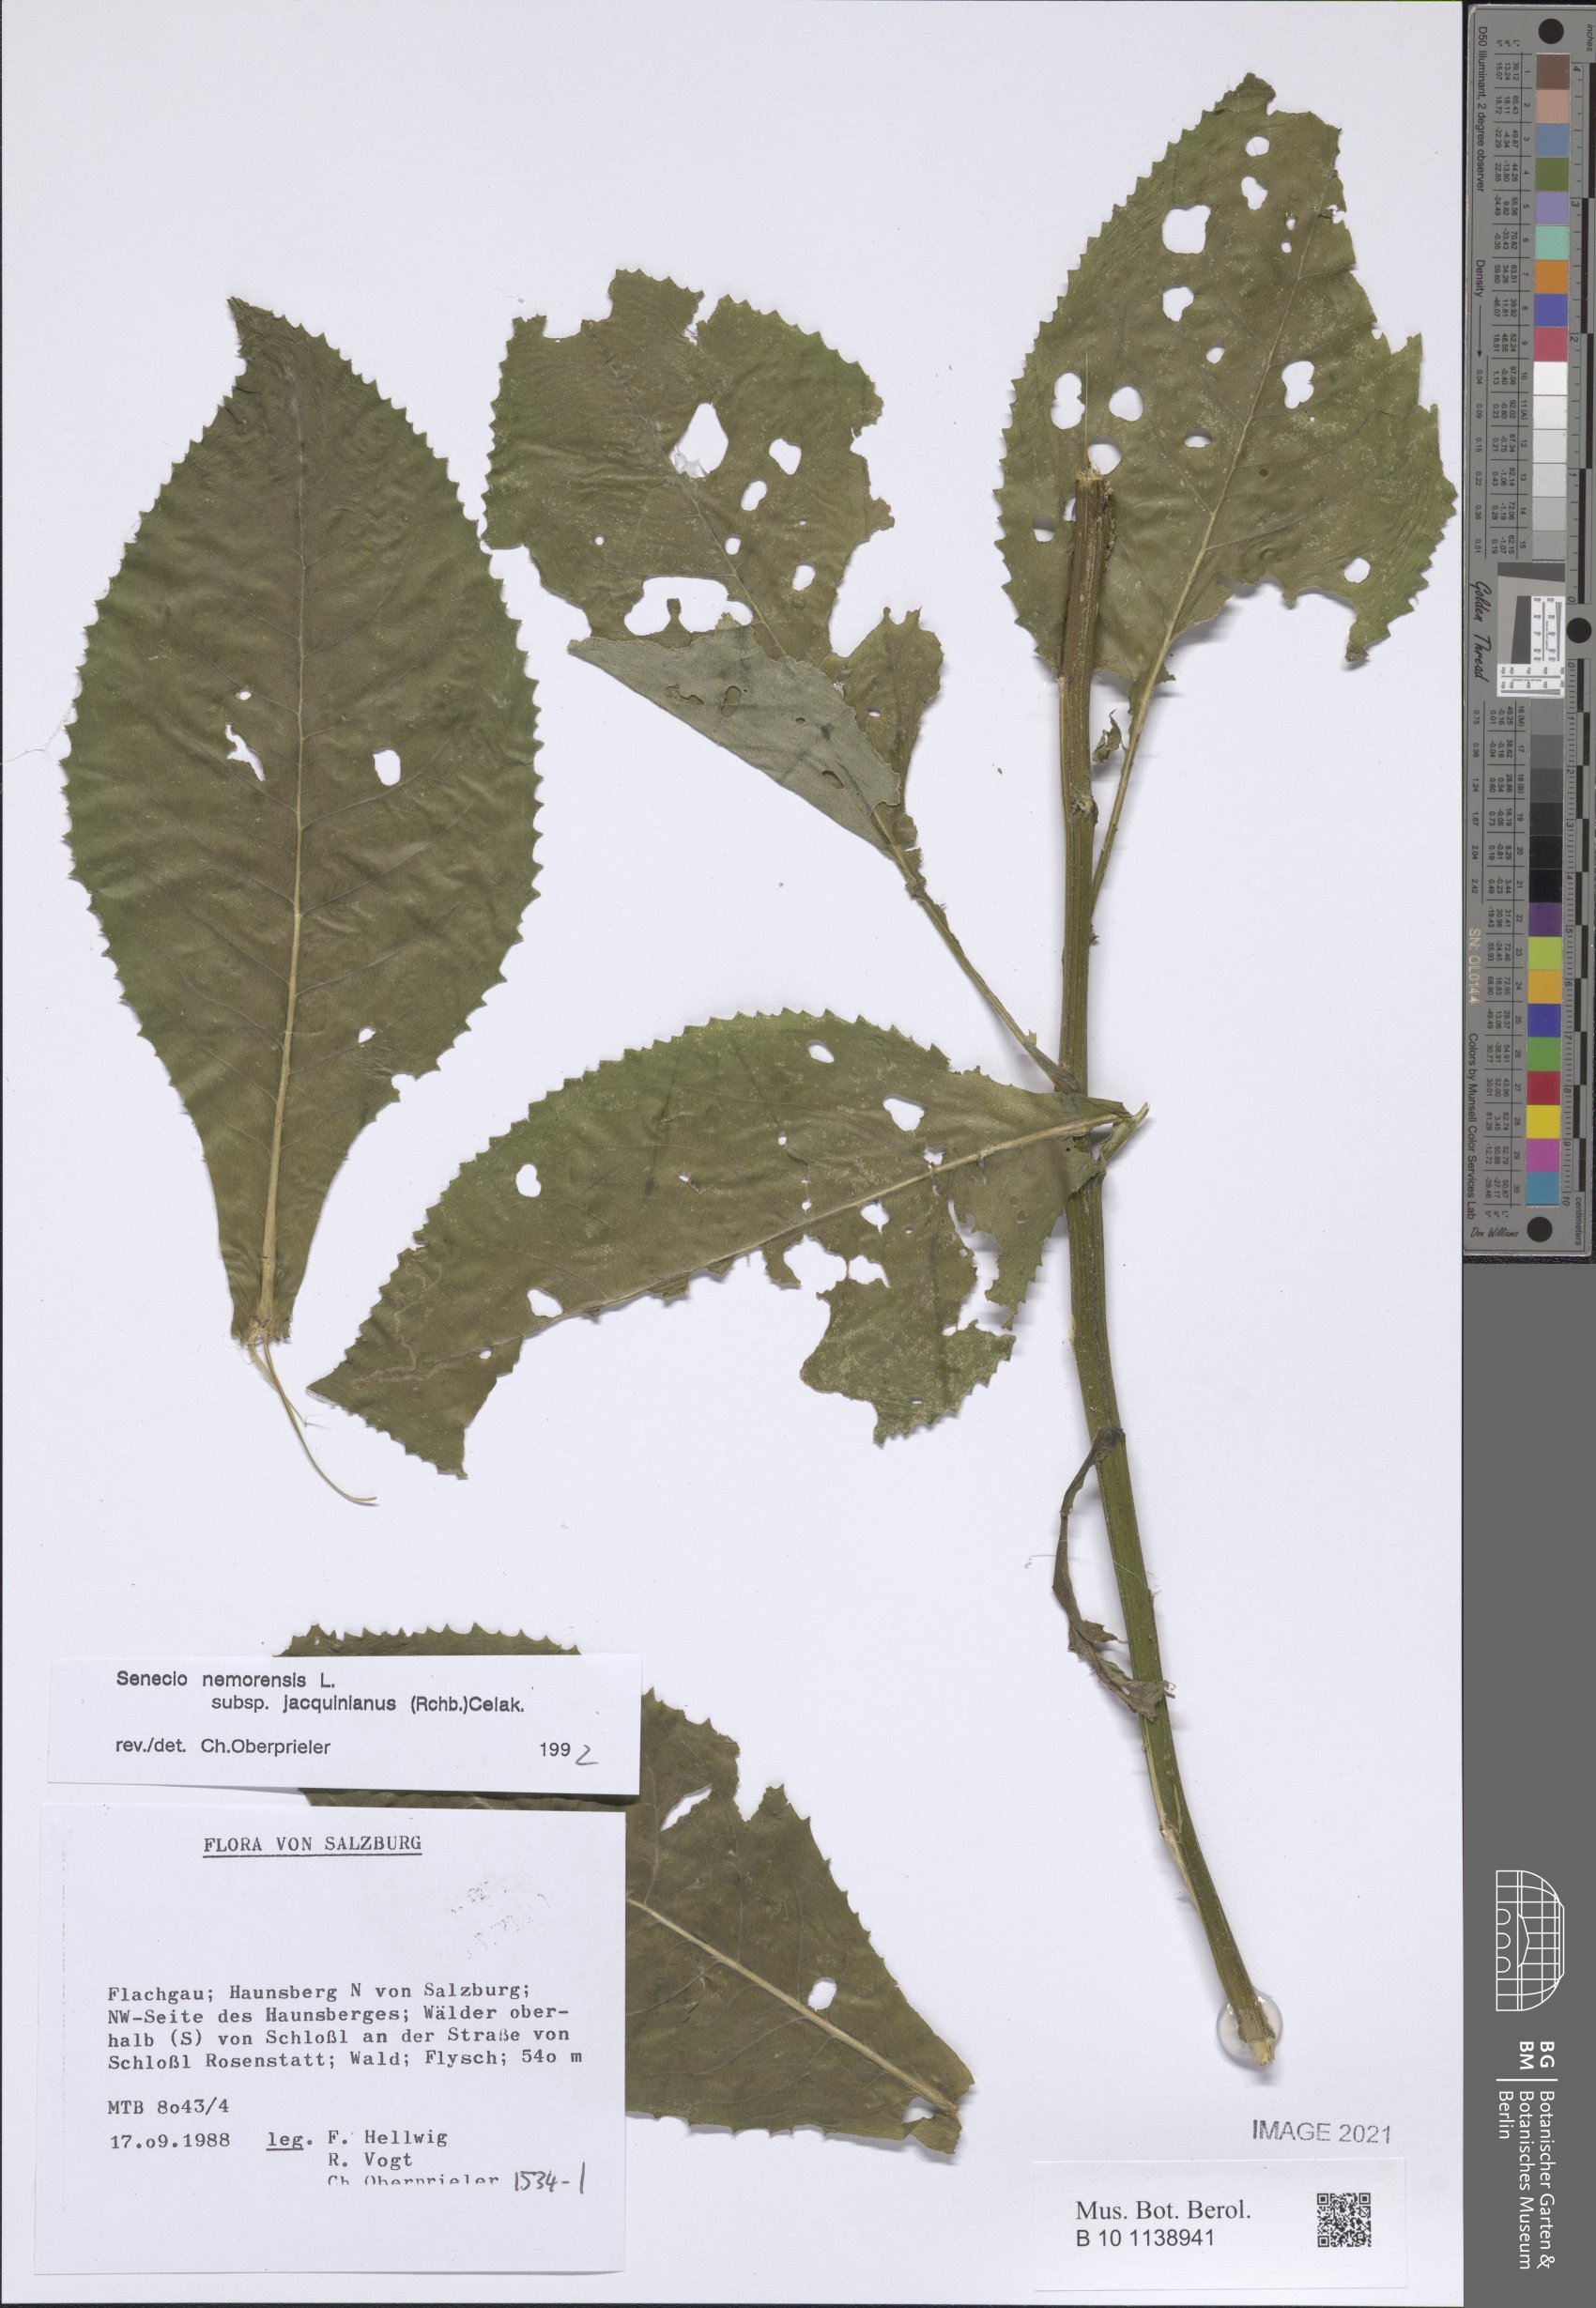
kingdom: Plantae
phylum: Tracheophyta
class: Magnoliopsida
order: Asterales
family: Asteraceae
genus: Senecio
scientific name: Senecio germanicus
